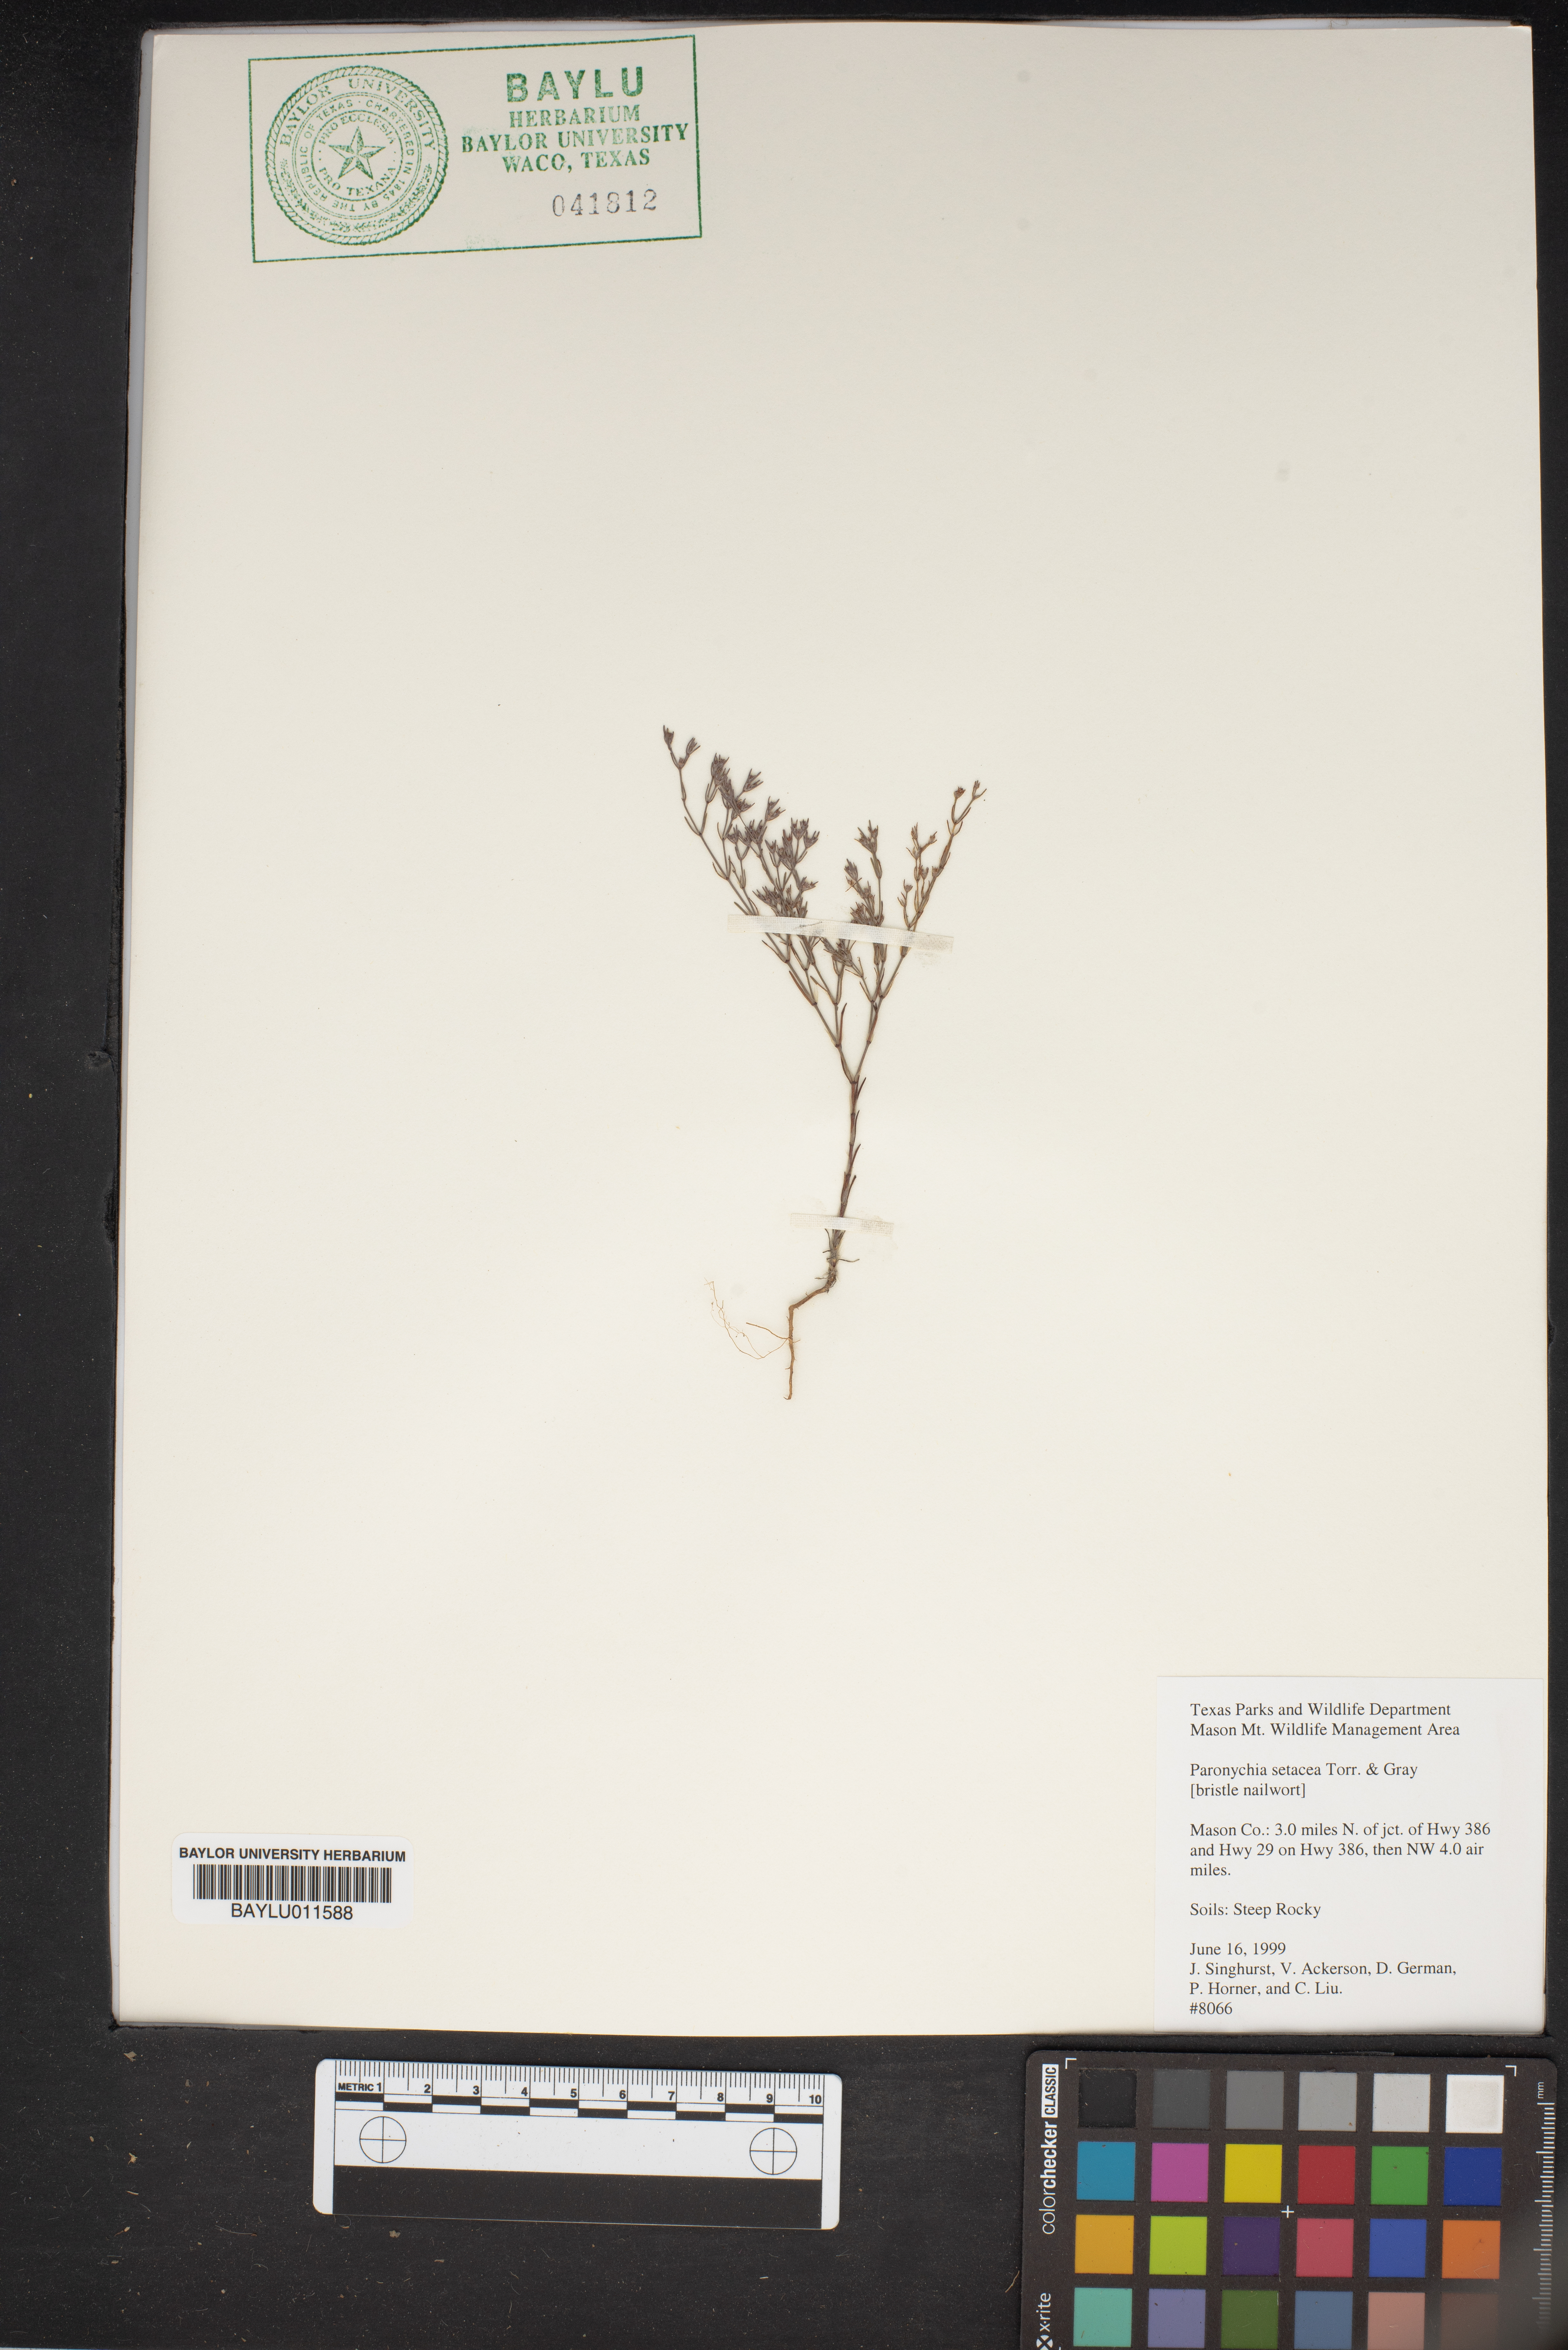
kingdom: Plantae
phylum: Tracheophyta
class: Magnoliopsida
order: Caryophyllales
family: Caryophyllaceae
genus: Paronychia
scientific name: Paronychia setacea
